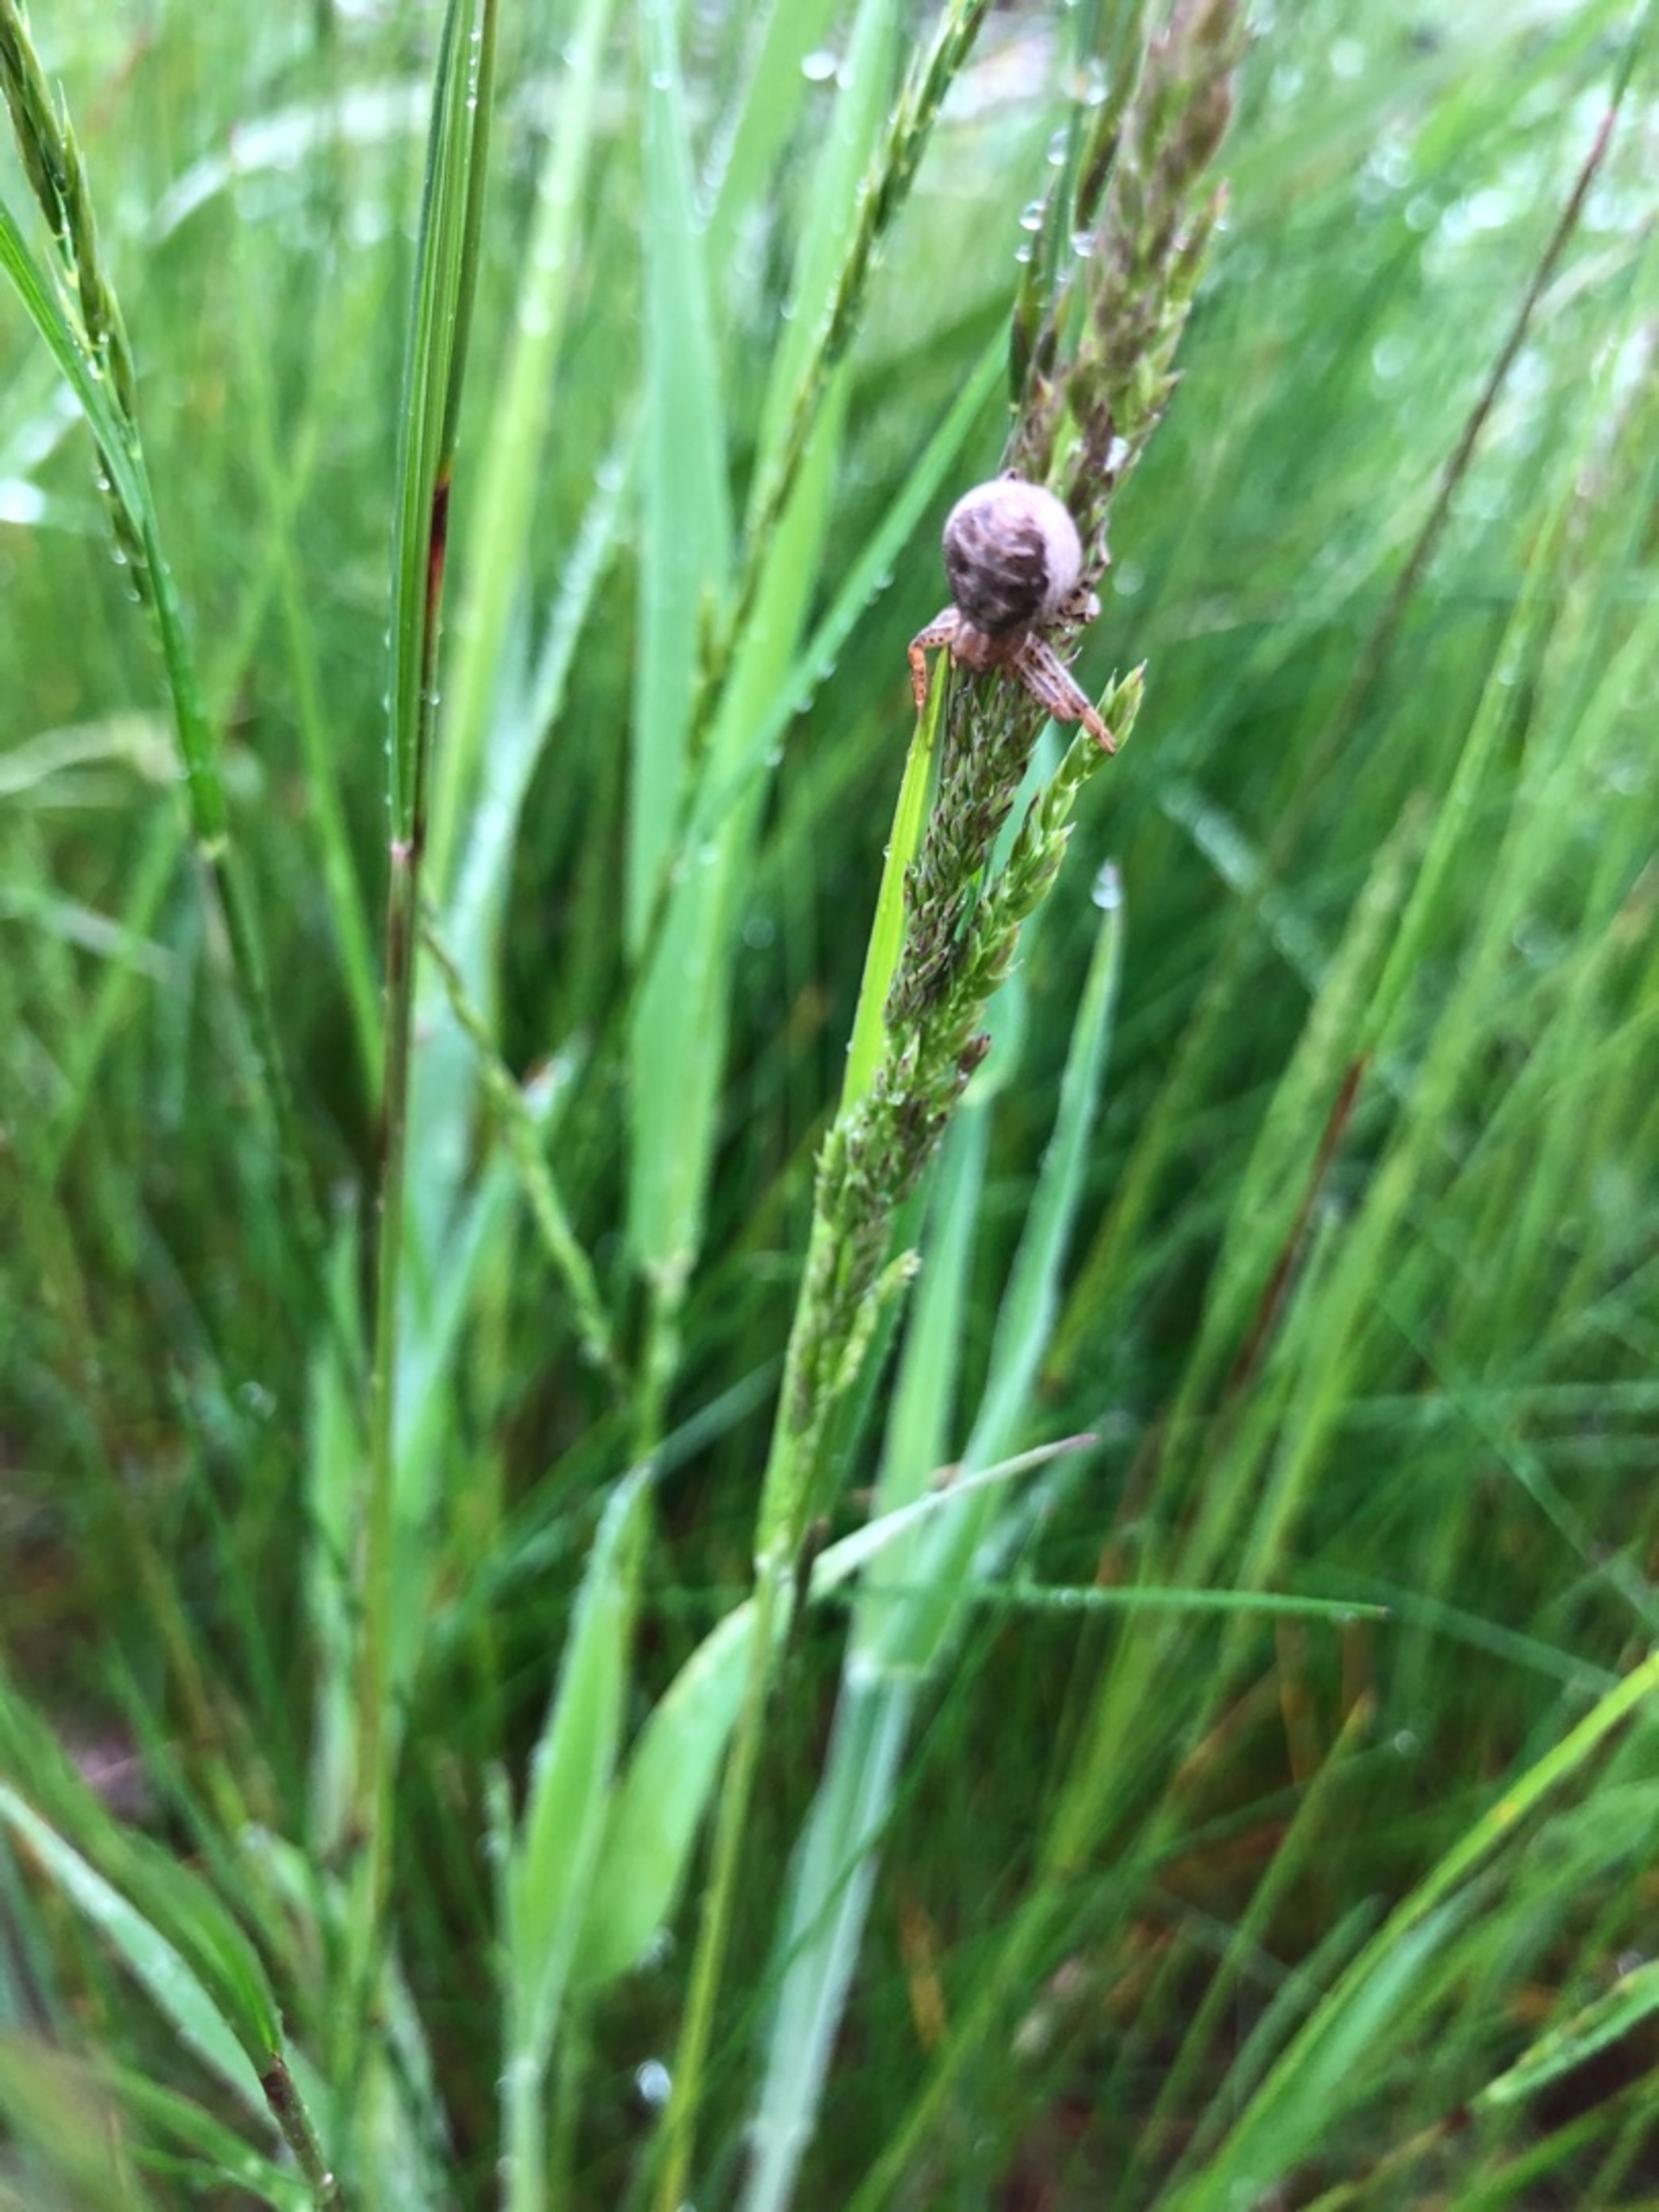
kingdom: Animalia
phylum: Arthropoda
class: Arachnida
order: Araneae
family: Thomisidae
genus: Xysticus
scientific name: Xysticus
